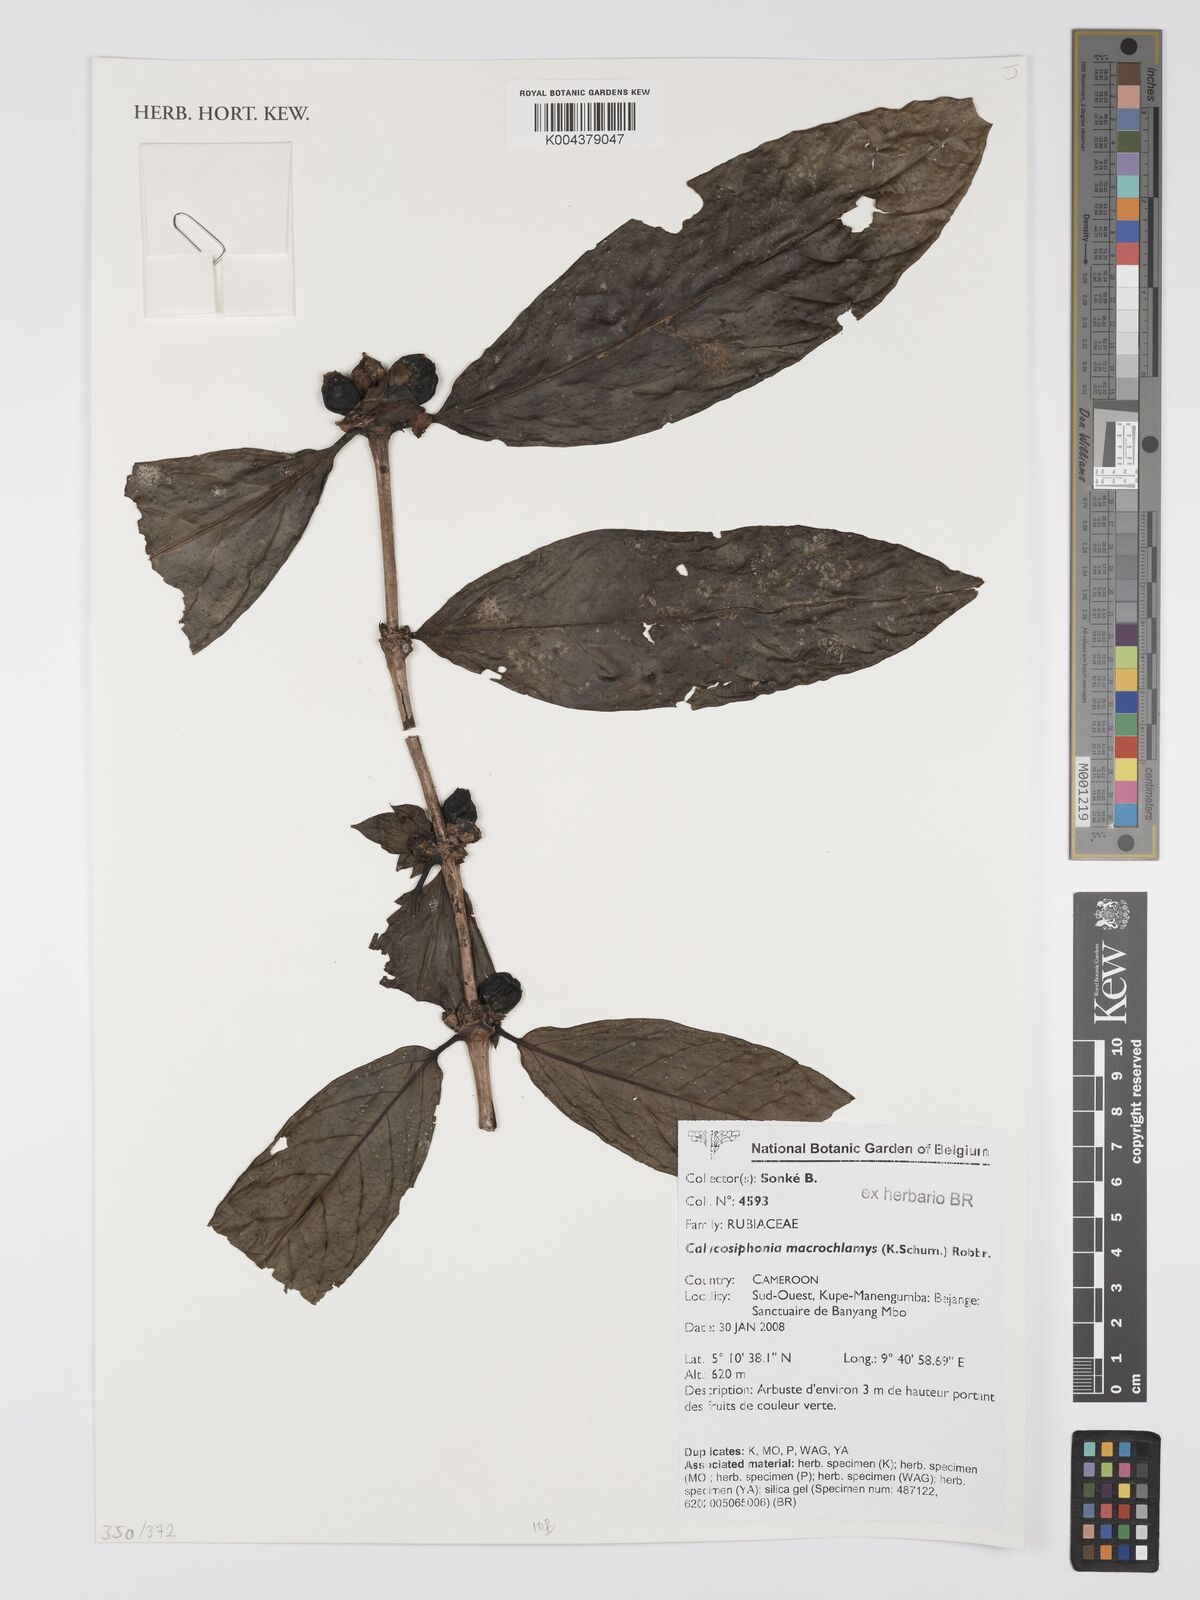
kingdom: Plantae
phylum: Tracheophyta
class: Magnoliopsida
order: Gentianales
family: Rubiaceae
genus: Calycosiphonia
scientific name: Calycosiphonia macrochlamys
